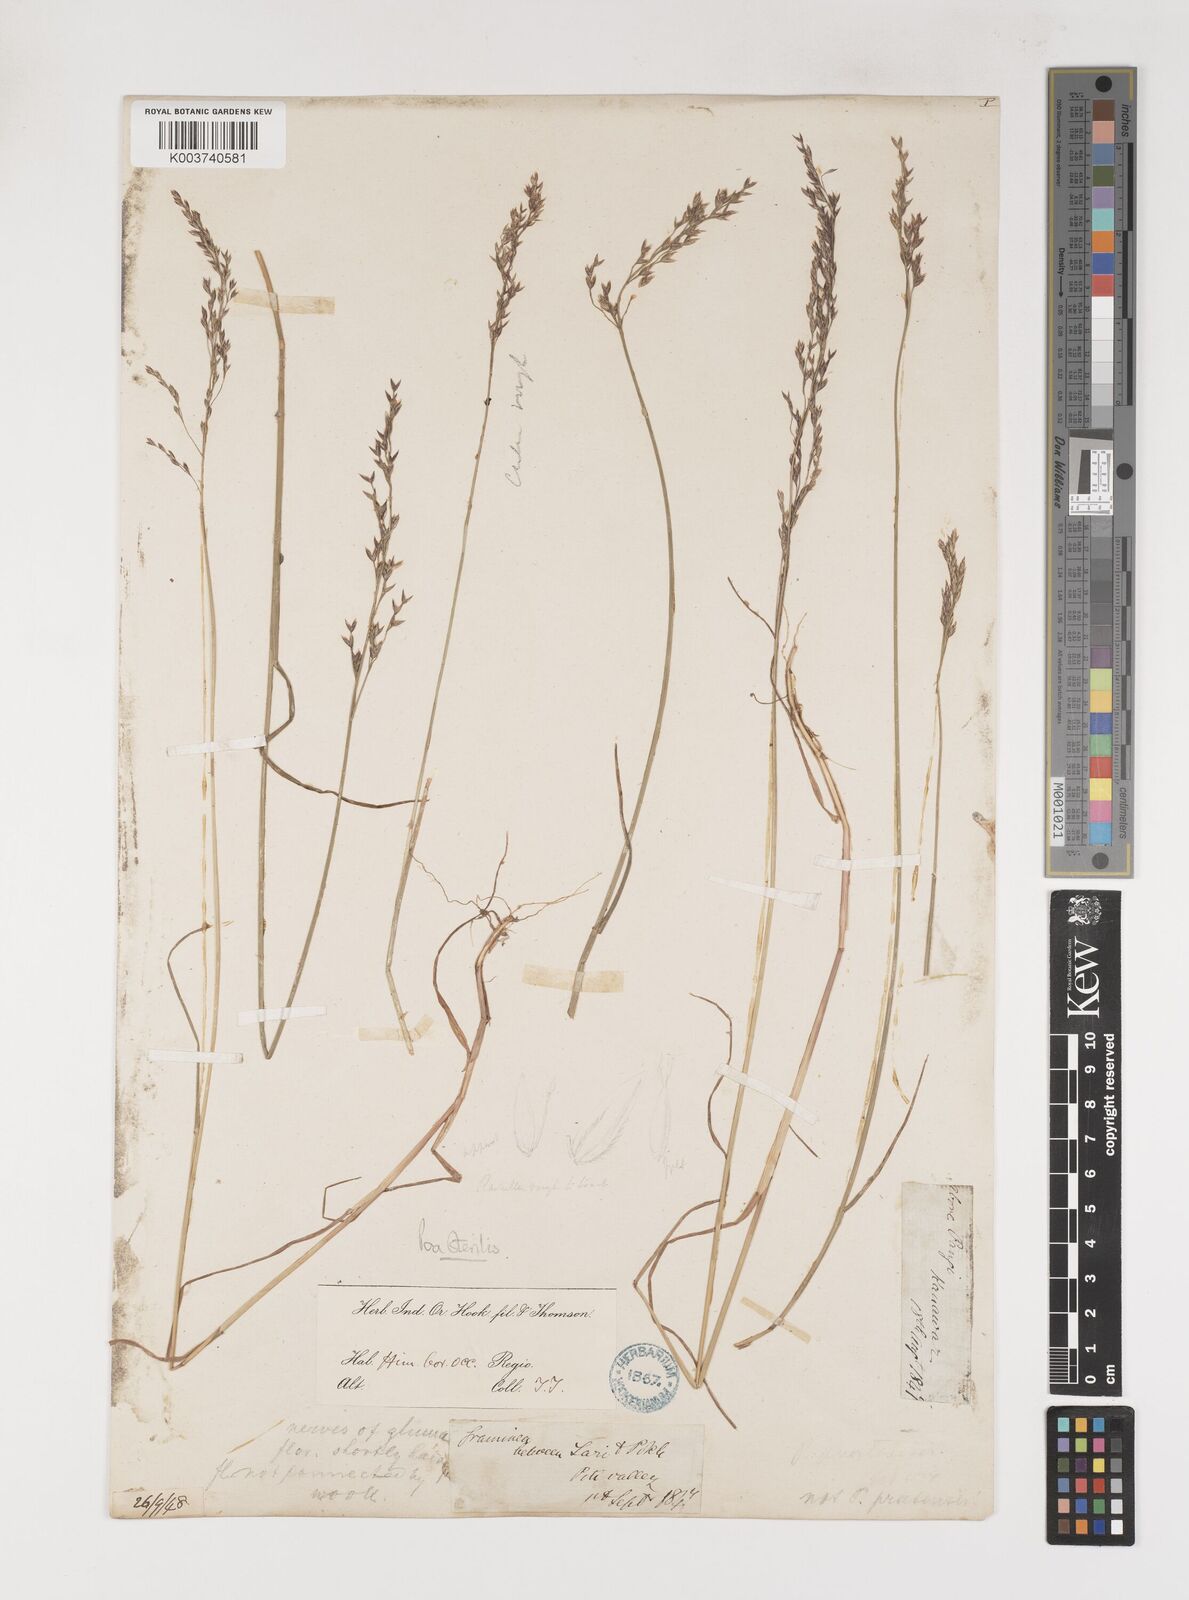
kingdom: Plantae
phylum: Tracheophyta
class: Liliopsida
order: Poales
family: Poaceae
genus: Poa
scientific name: Poa sterilis
